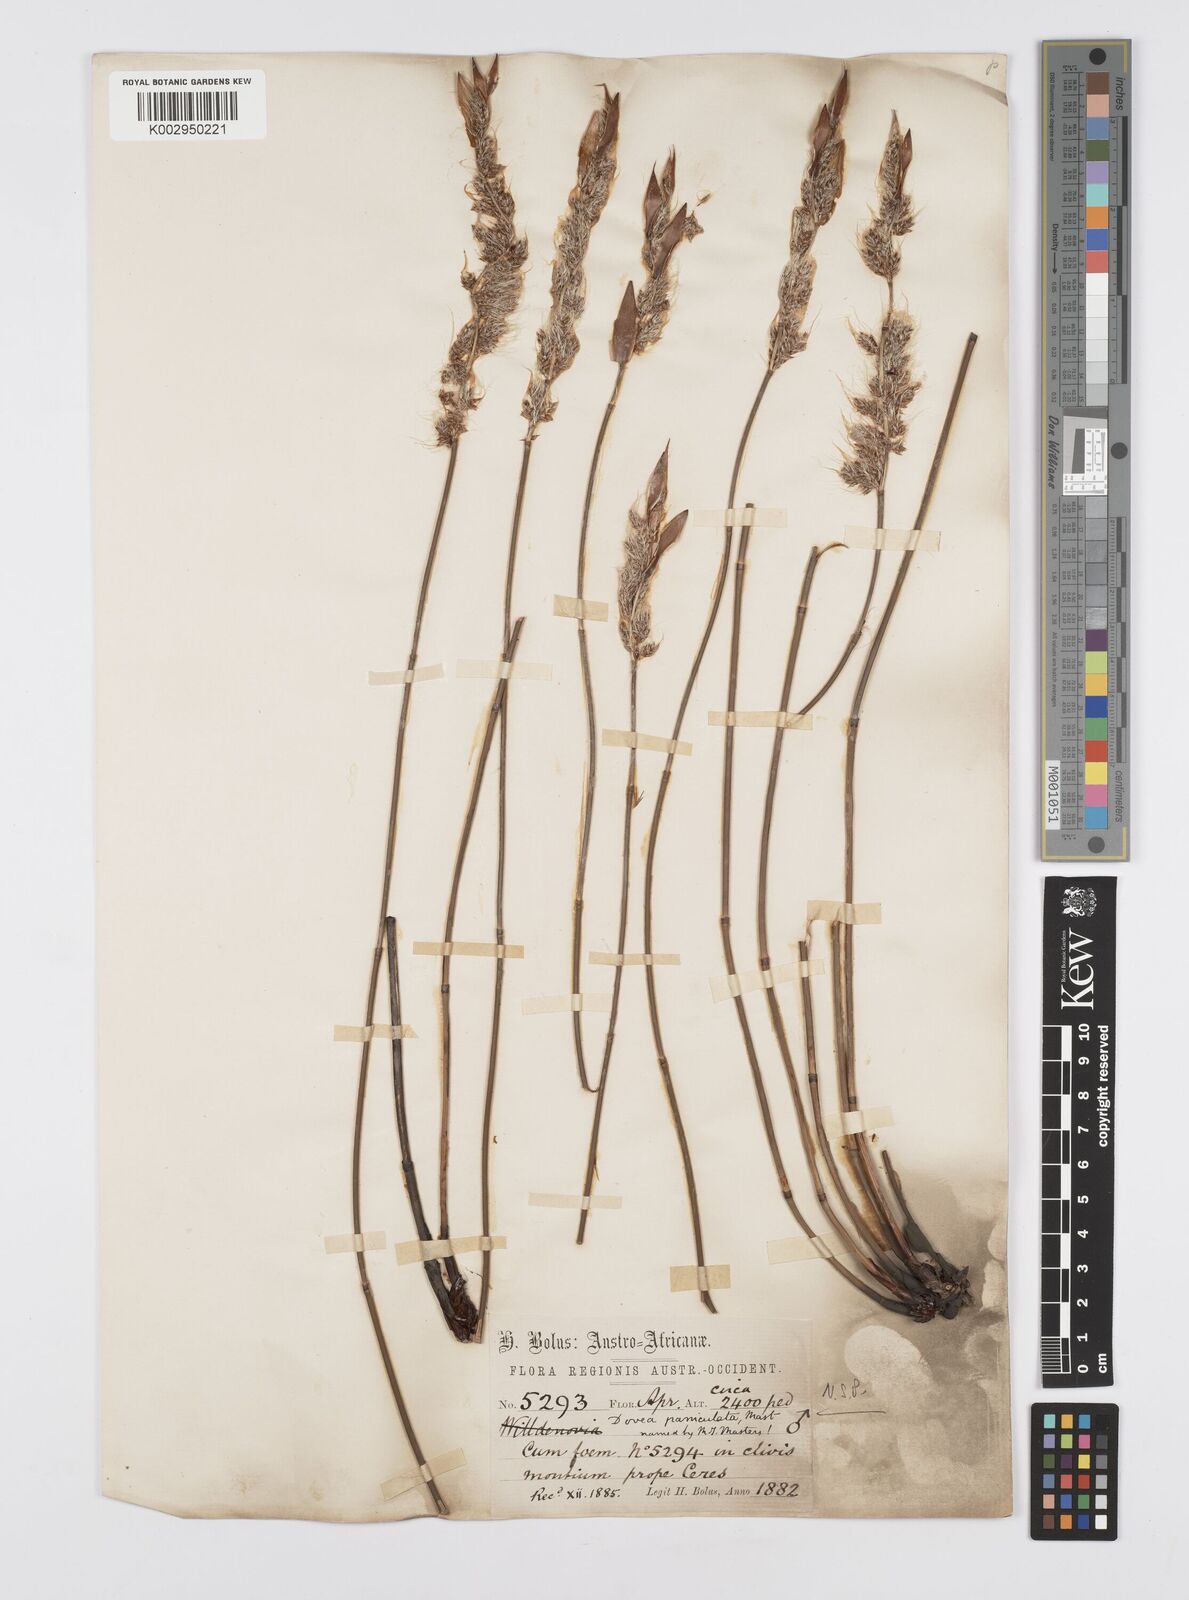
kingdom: Plantae
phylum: Tracheophyta
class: Liliopsida
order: Poales
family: Restionaceae
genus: Askidiosperma
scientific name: Askidiosperma paniculatum
